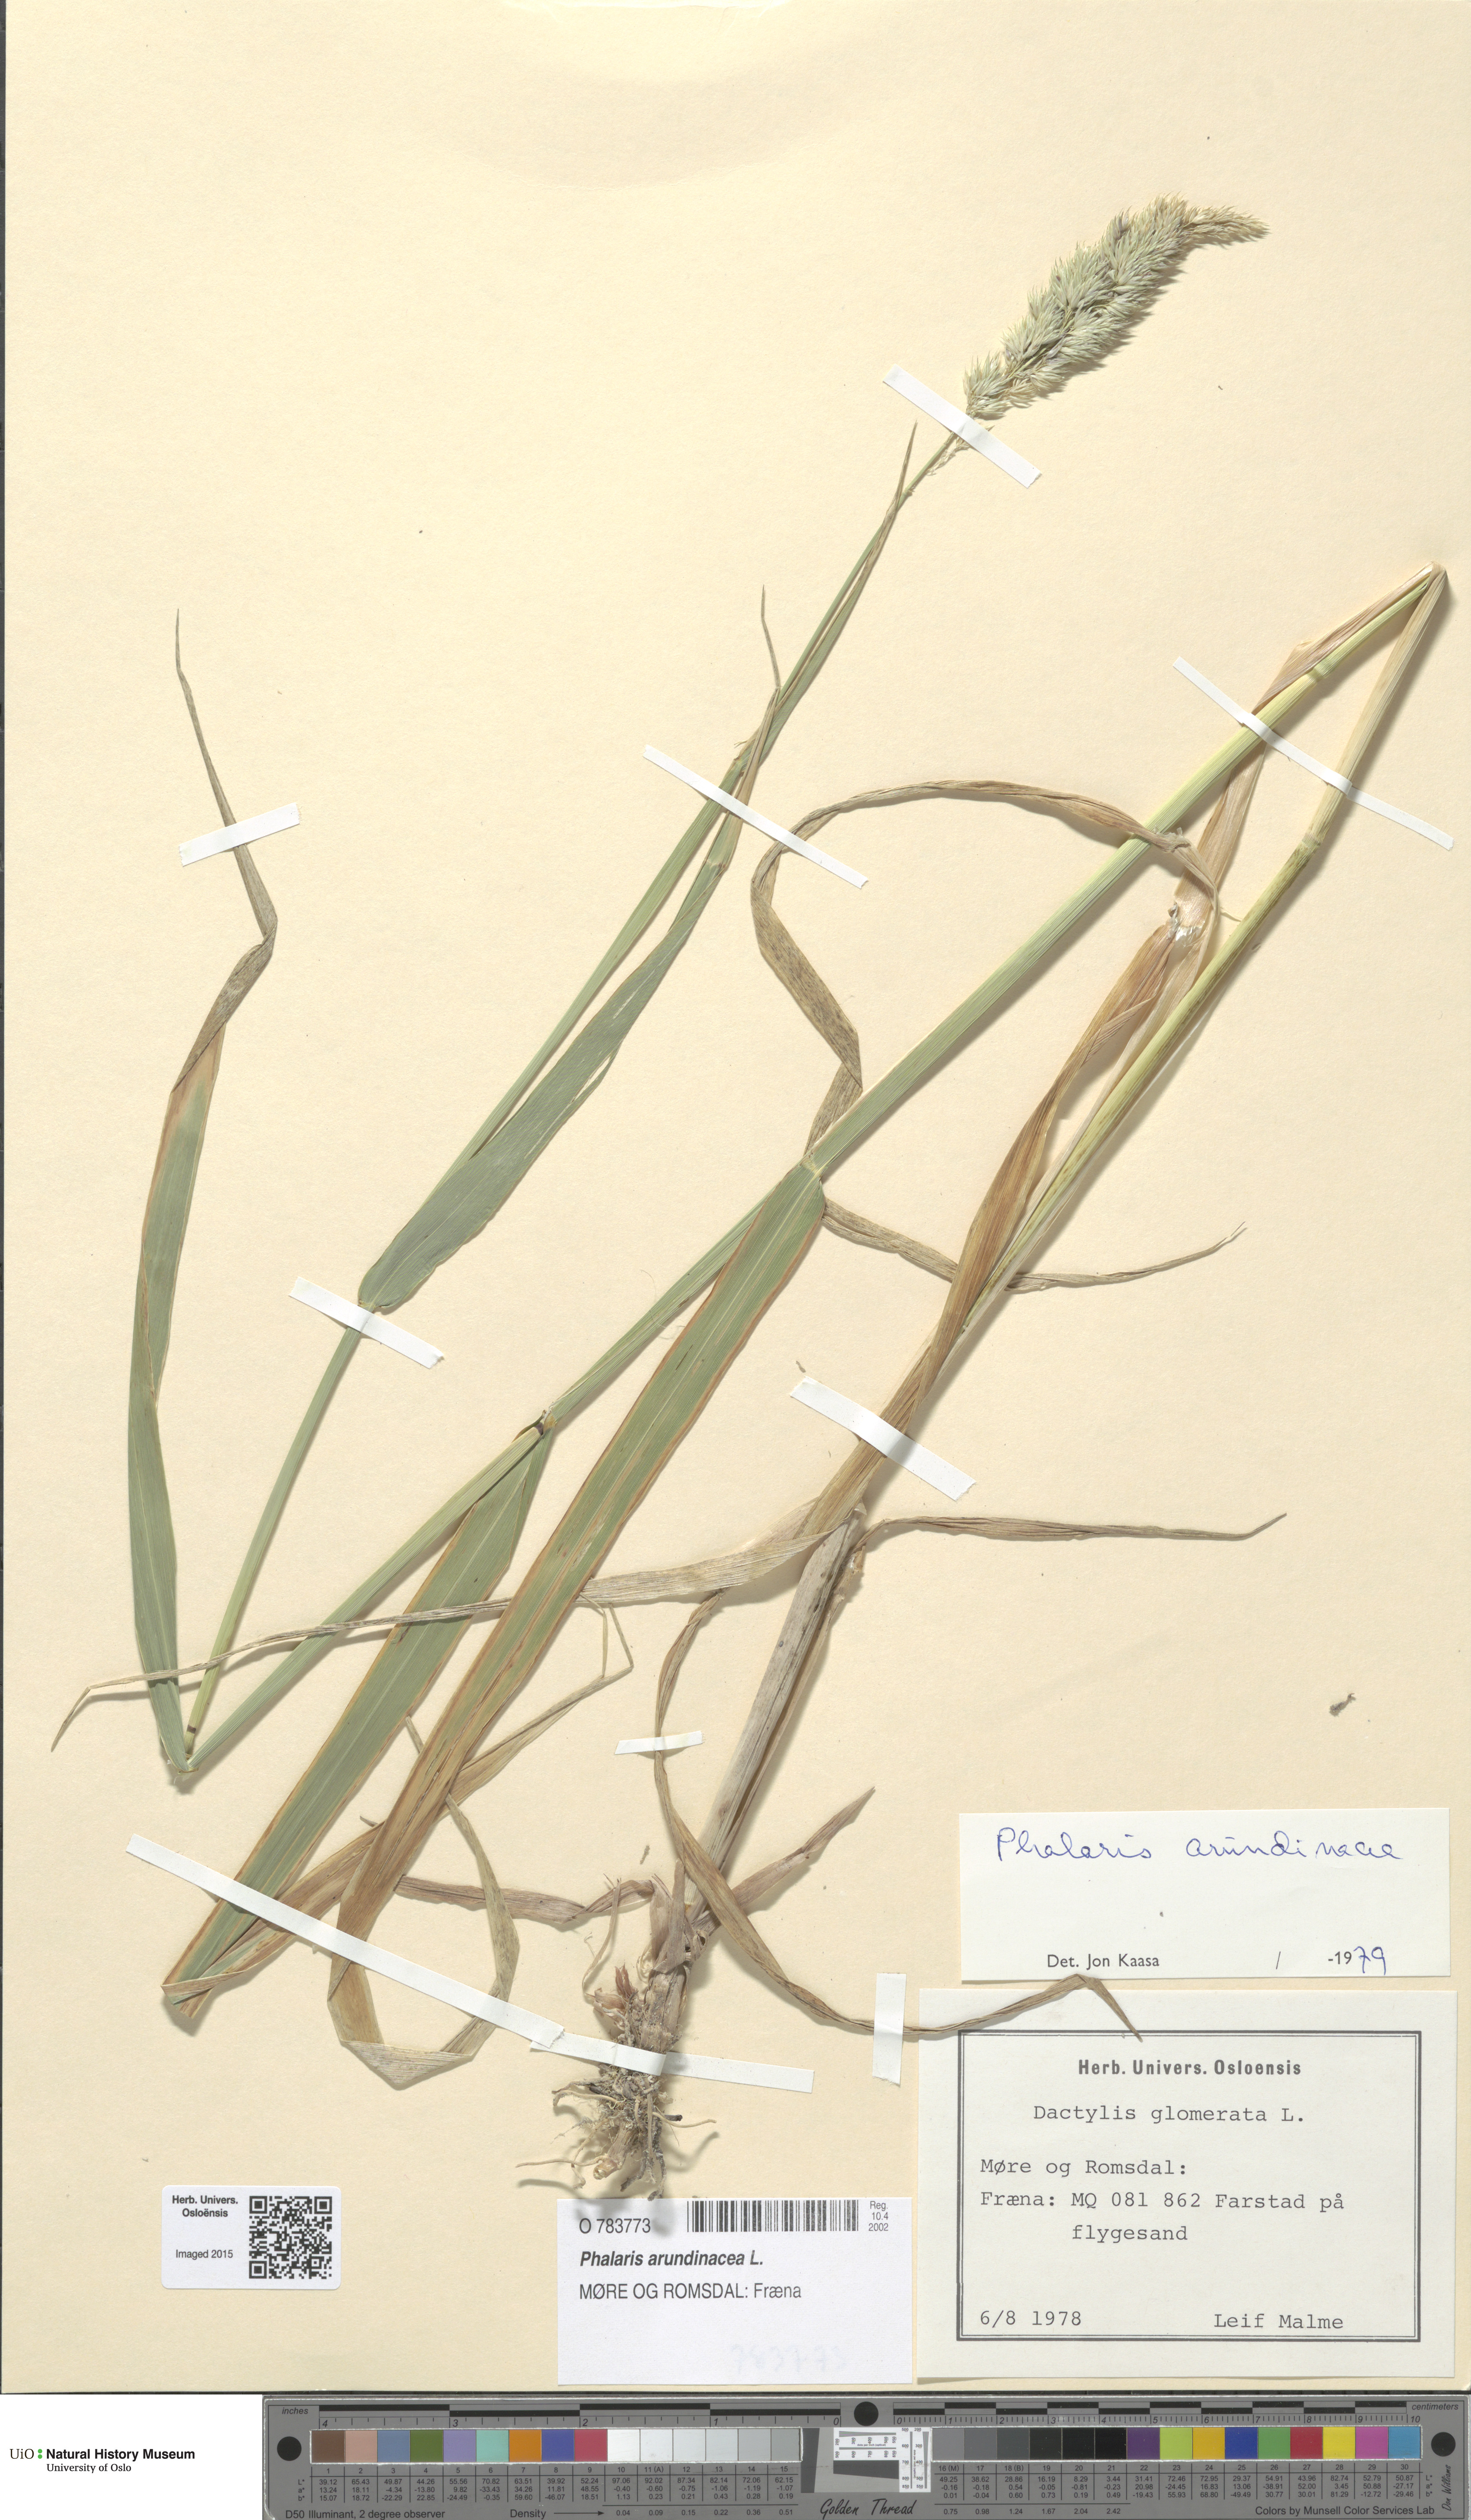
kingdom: Plantae
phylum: Tracheophyta
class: Liliopsida
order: Poales
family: Poaceae
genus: Phalaris
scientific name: Phalaris arundinacea
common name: Reed canary-grass
